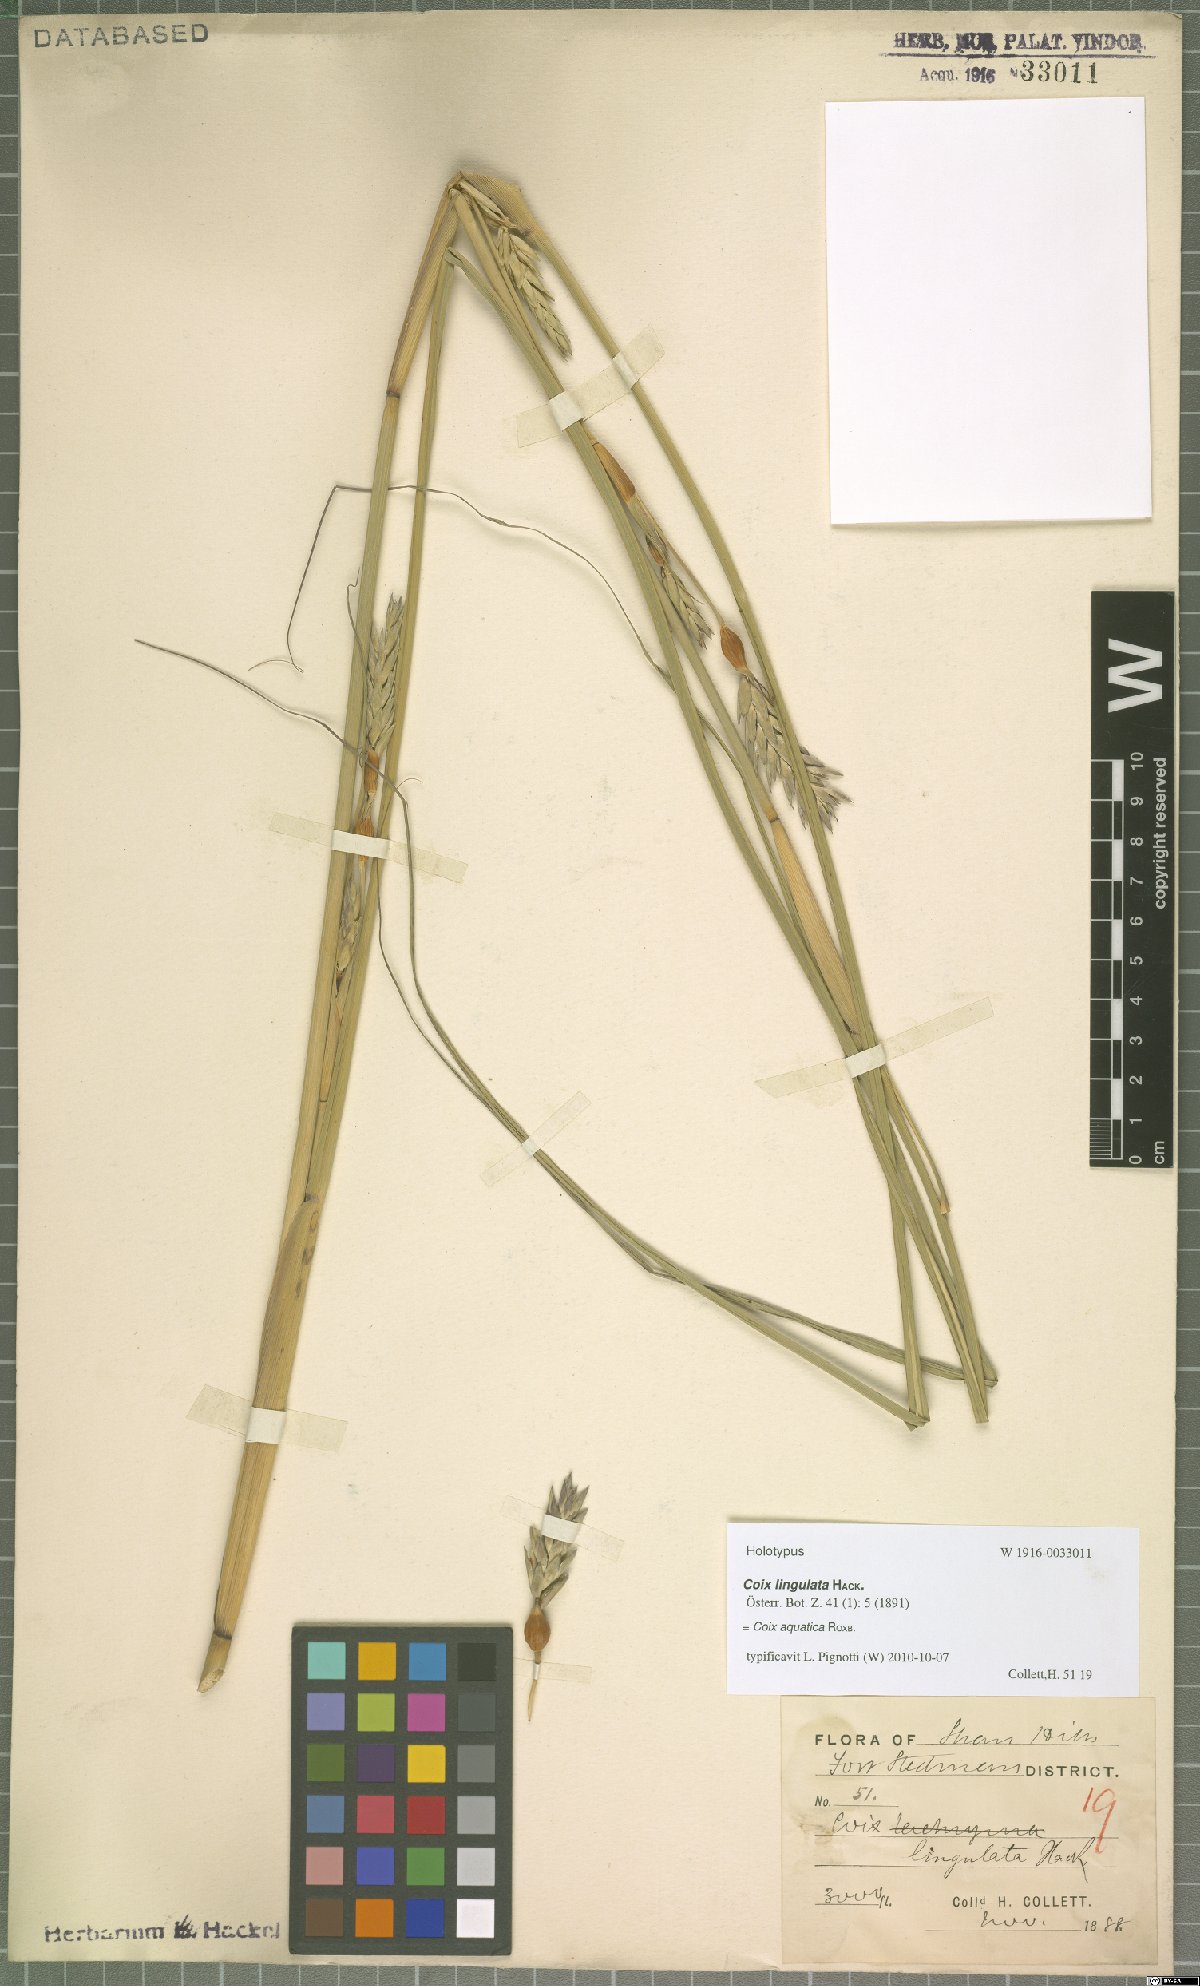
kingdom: Plantae
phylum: Tracheophyta
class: Liliopsida
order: Poales
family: Poaceae
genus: Coix
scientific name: Coix aquatica
